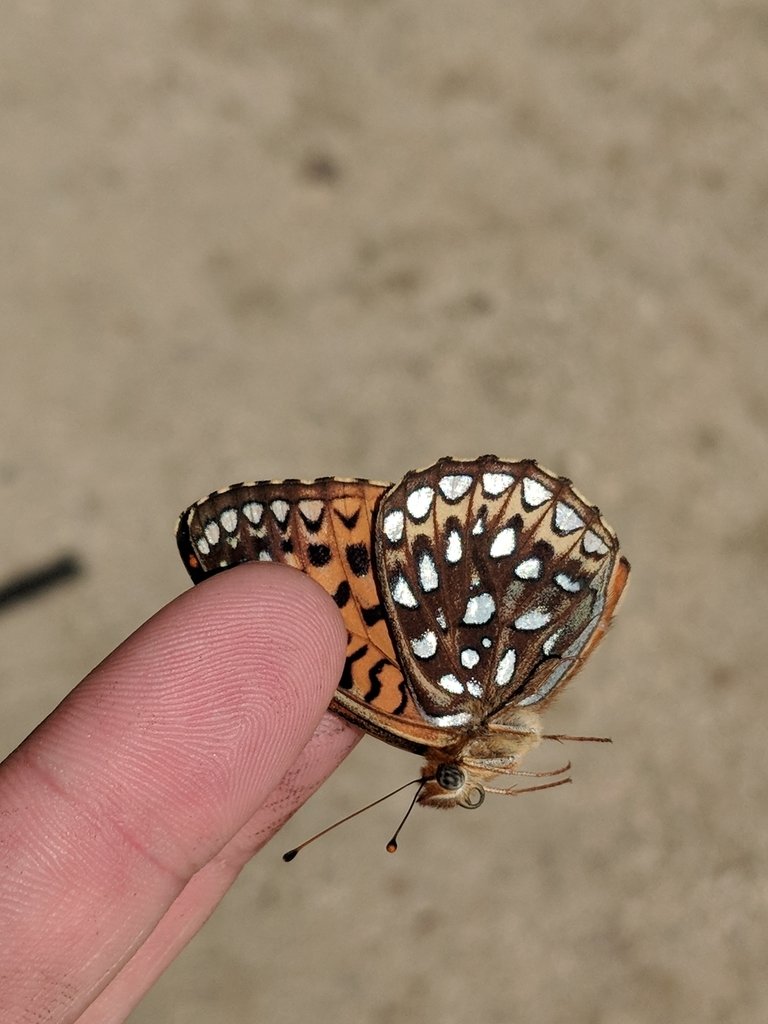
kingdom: Animalia
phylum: Arthropoda
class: Insecta
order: Lepidoptera
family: Nymphalidae
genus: Speyeria
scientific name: Speyeria atlantis
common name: Atlantis Fritillary
